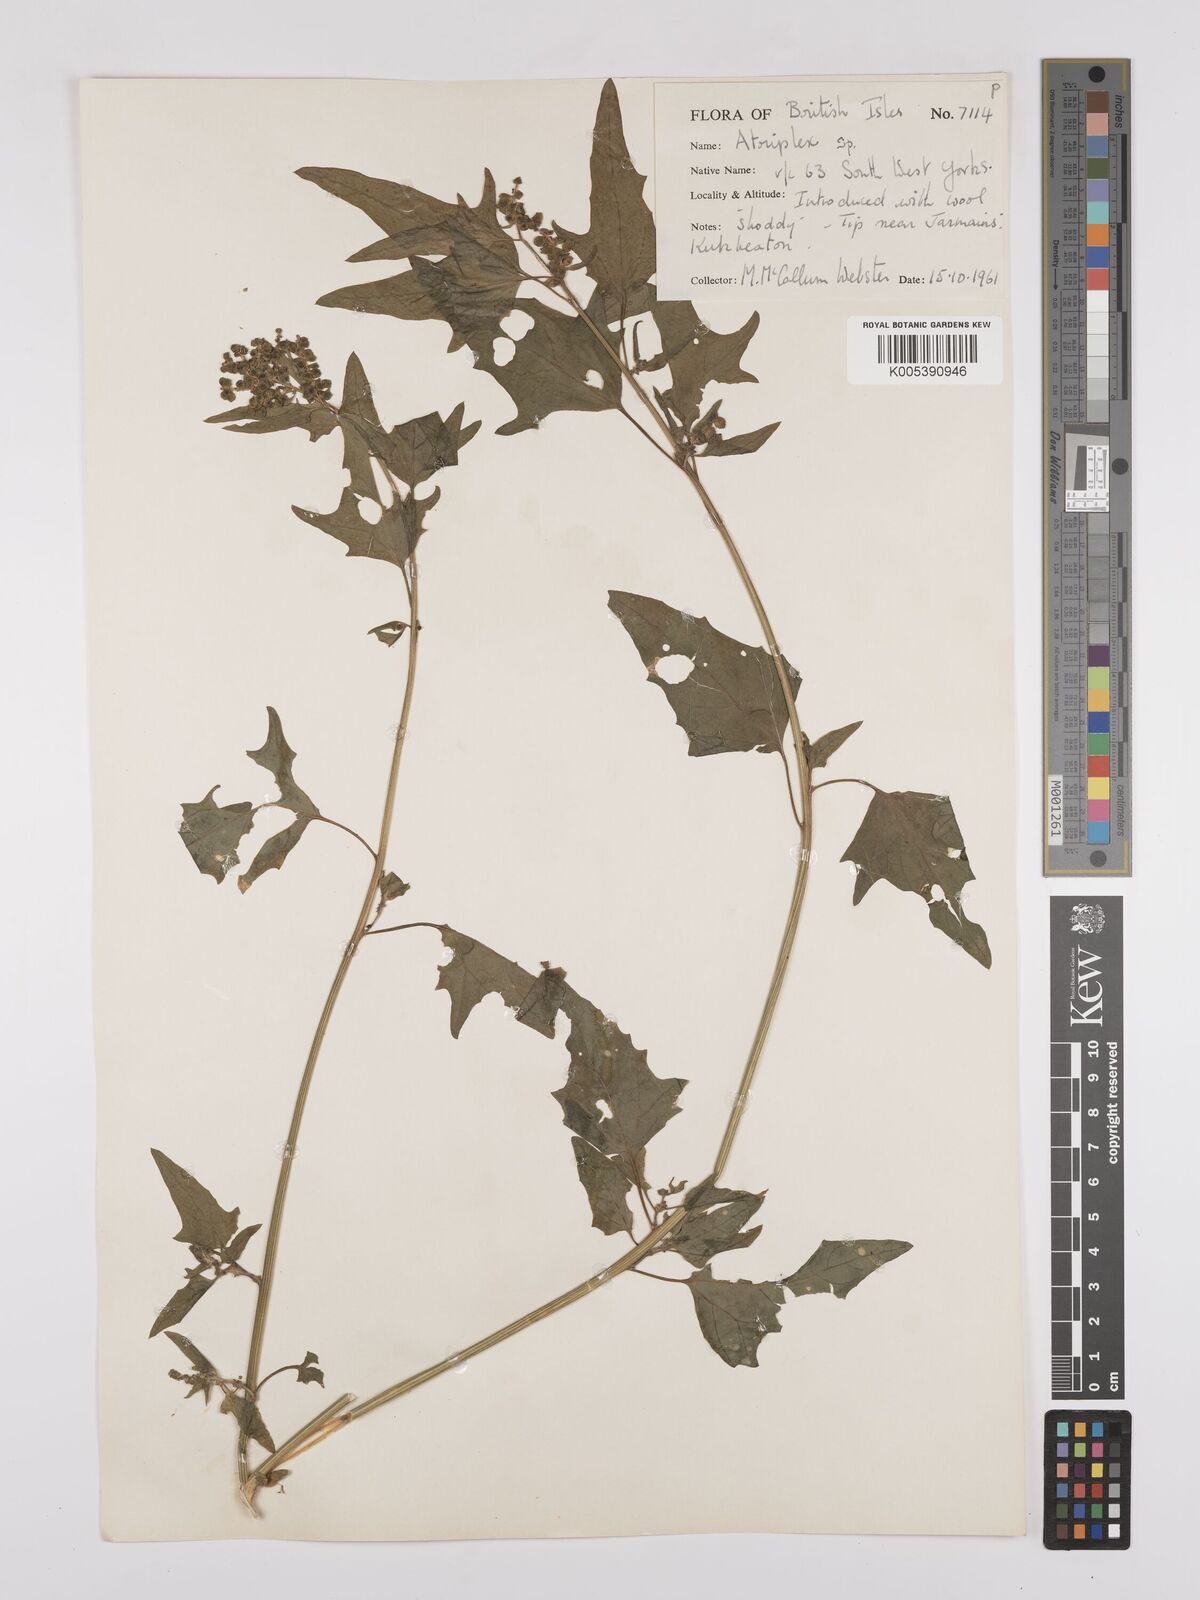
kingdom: Plantae
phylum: Tracheophyta
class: Magnoliopsida
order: Caryophyllales
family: Amaranthaceae
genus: Atriplex
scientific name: Atriplex micrantha
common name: Twoscale saltbush
